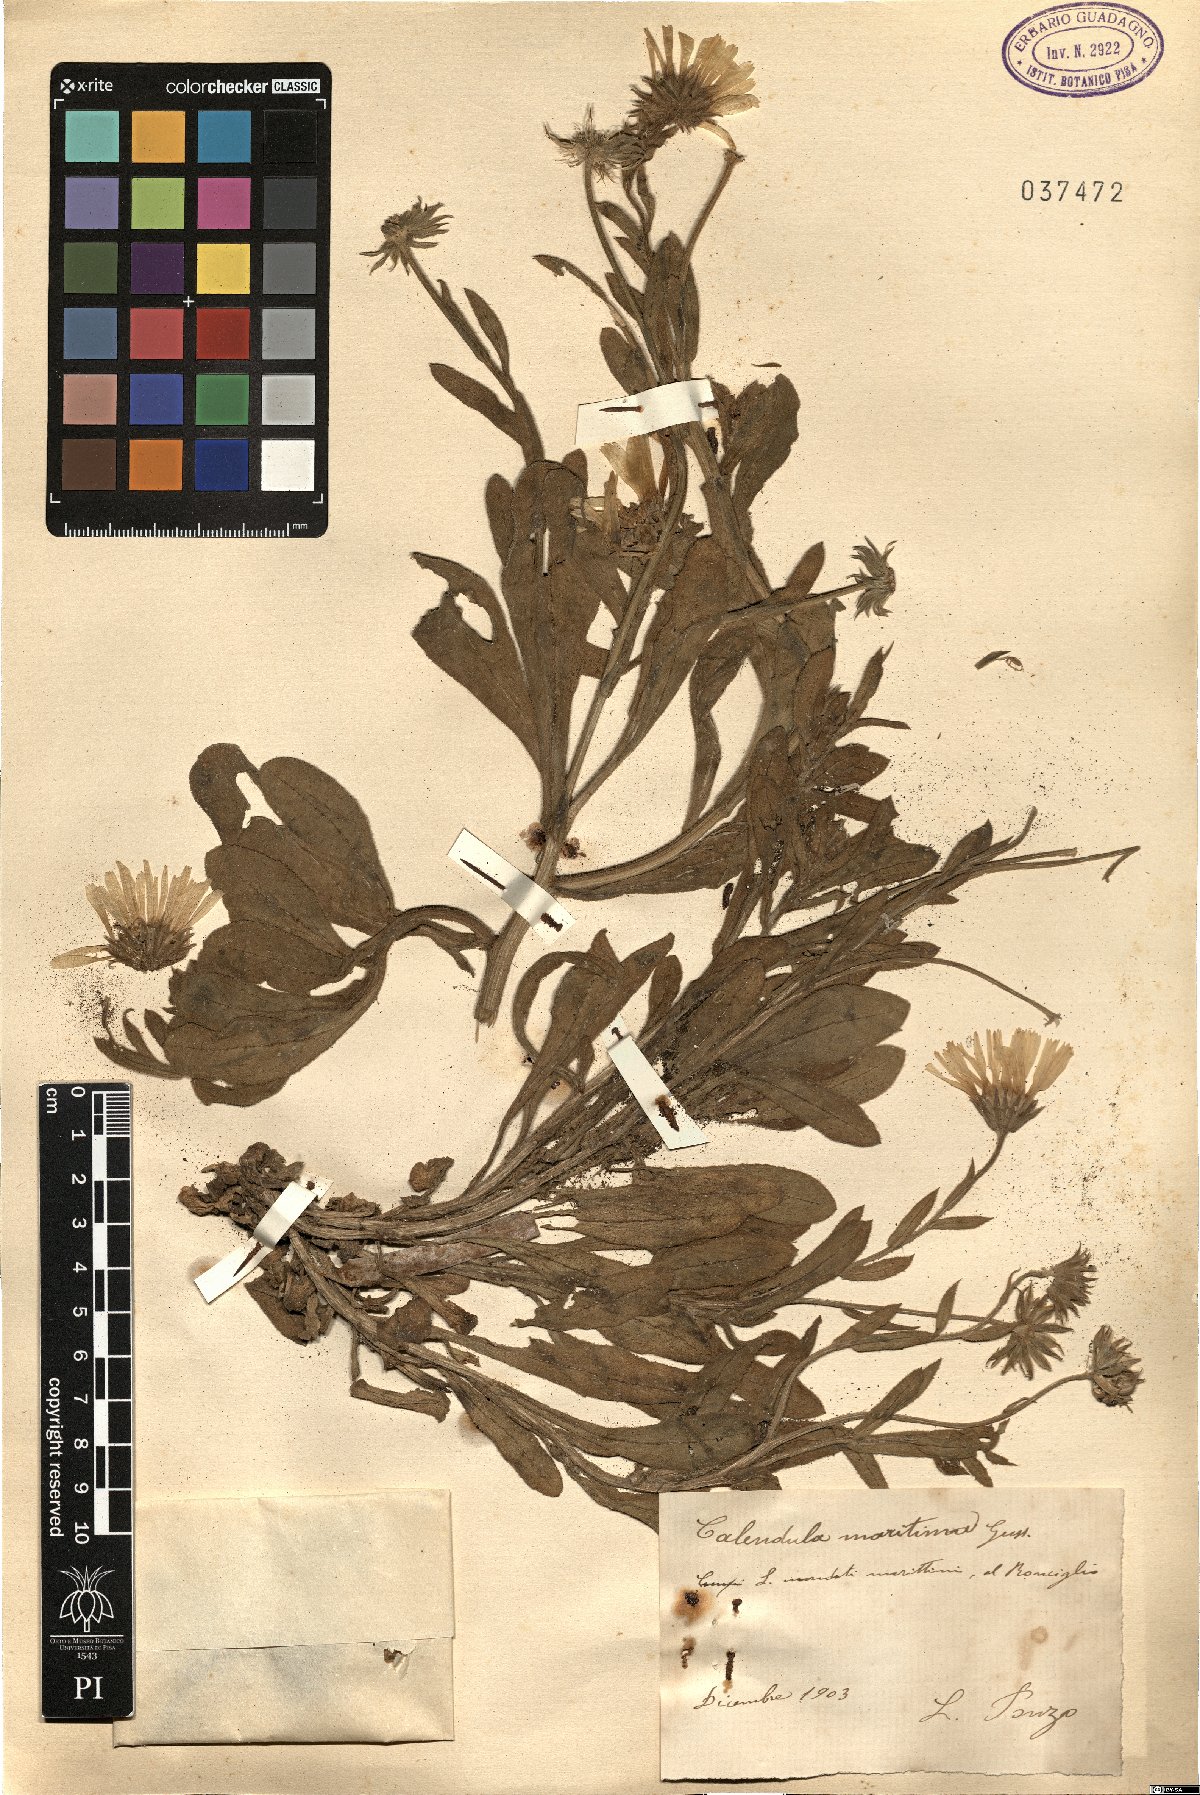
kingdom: Plantae
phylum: Tracheophyta
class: Magnoliopsida
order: Asterales
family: Asteraceae
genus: Calendula
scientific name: Calendula suffruticosa
